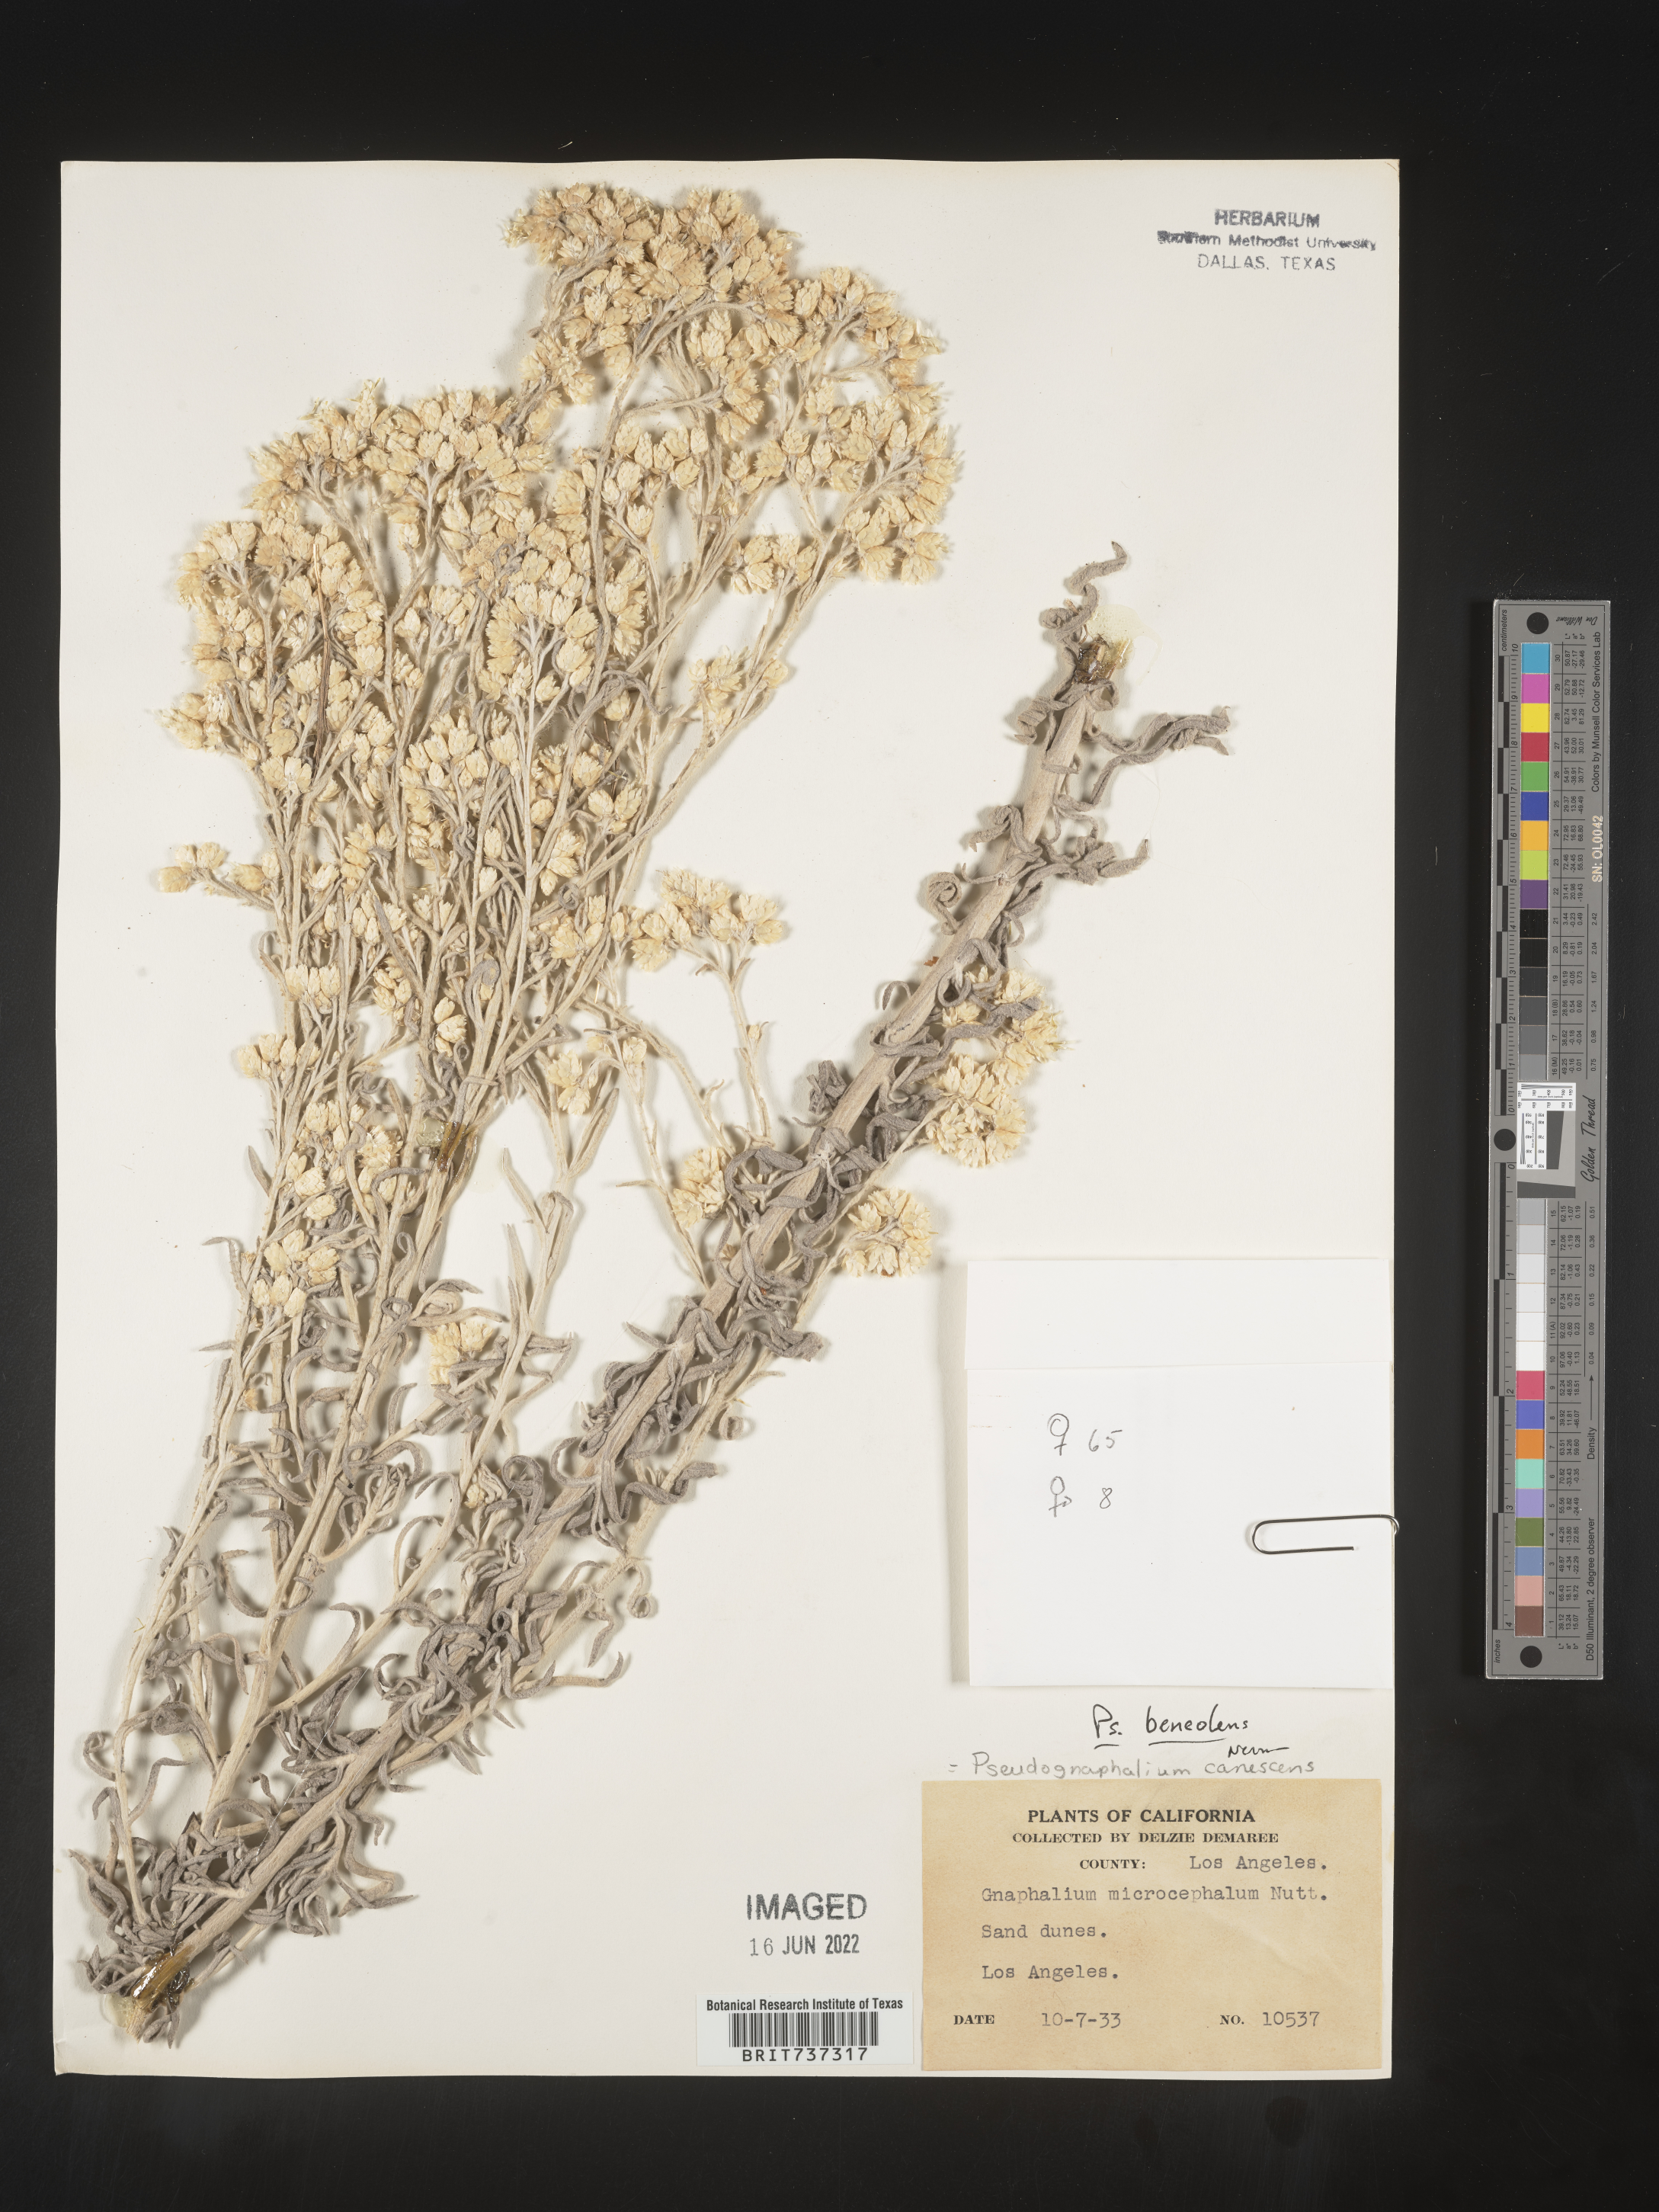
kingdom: Plantae
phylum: Tracheophyta
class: Magnoliopsida
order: Asterales
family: Asteraceae
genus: Pseudognaphalium
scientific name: Pseudognaphalium beneolens
